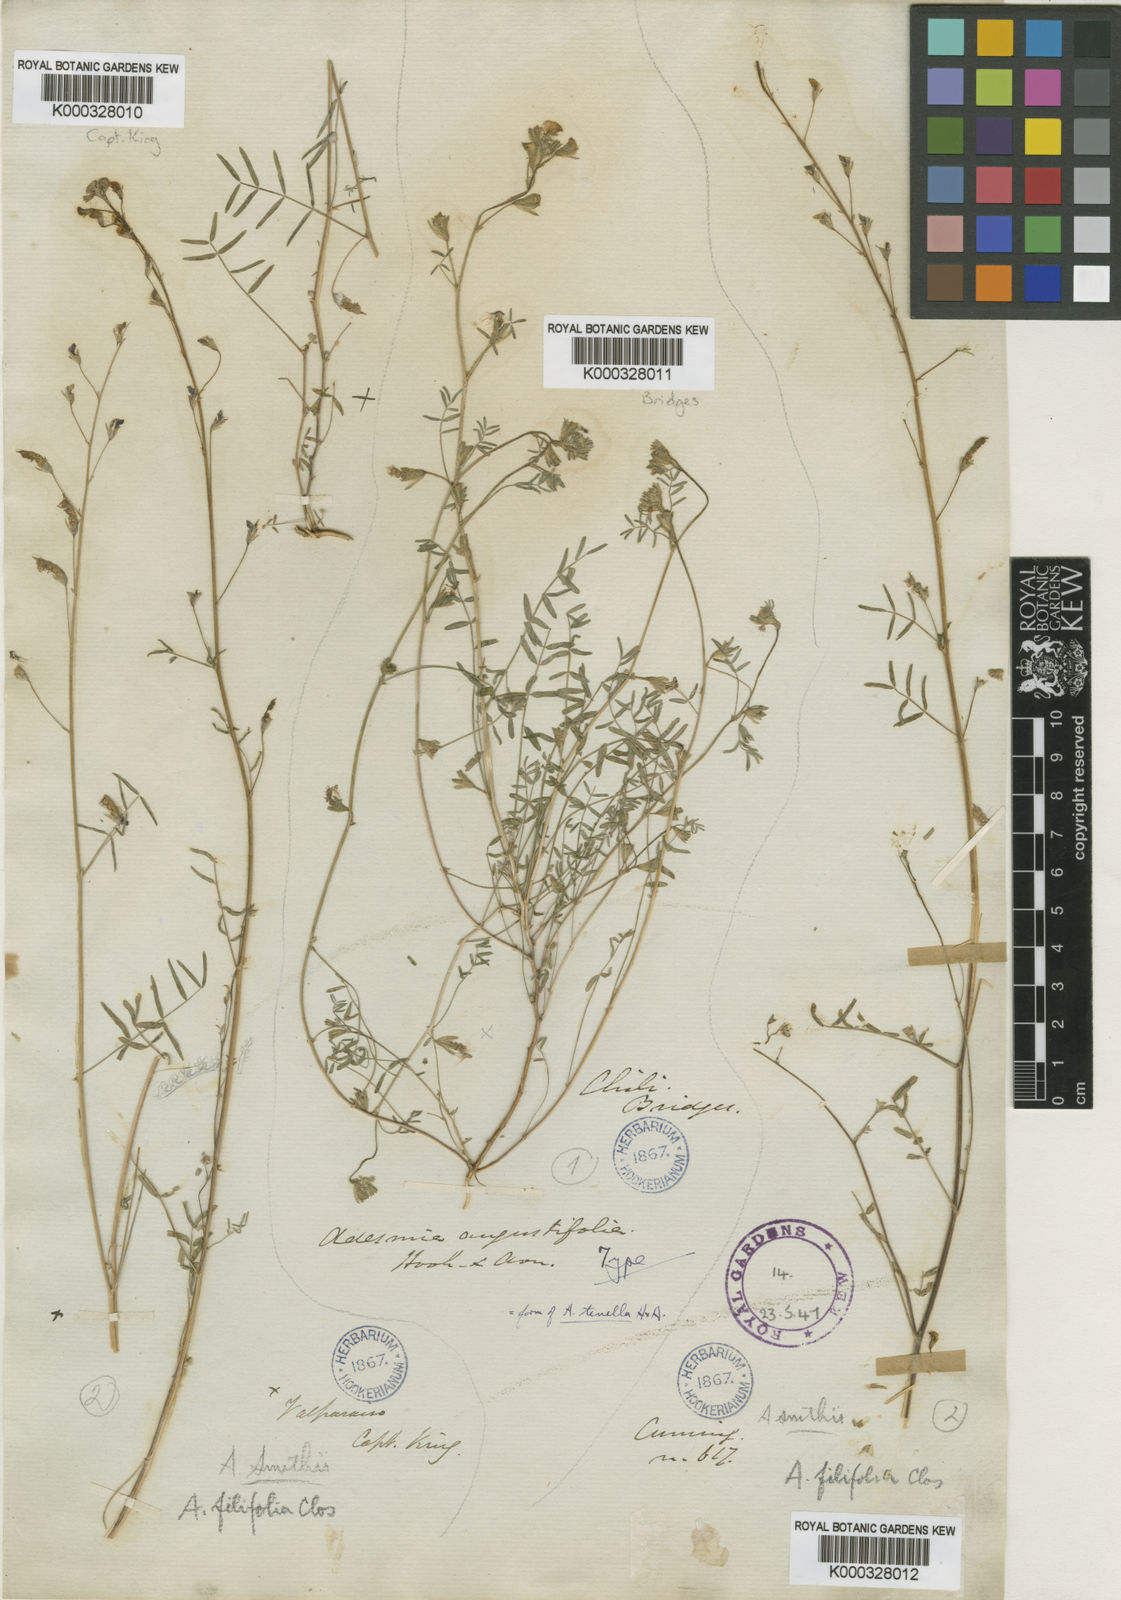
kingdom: Plantae
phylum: Tracheophyta
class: Magnoliopsida
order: Fabales
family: Fabaceae
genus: Adesmia
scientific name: Adesmia tenella
